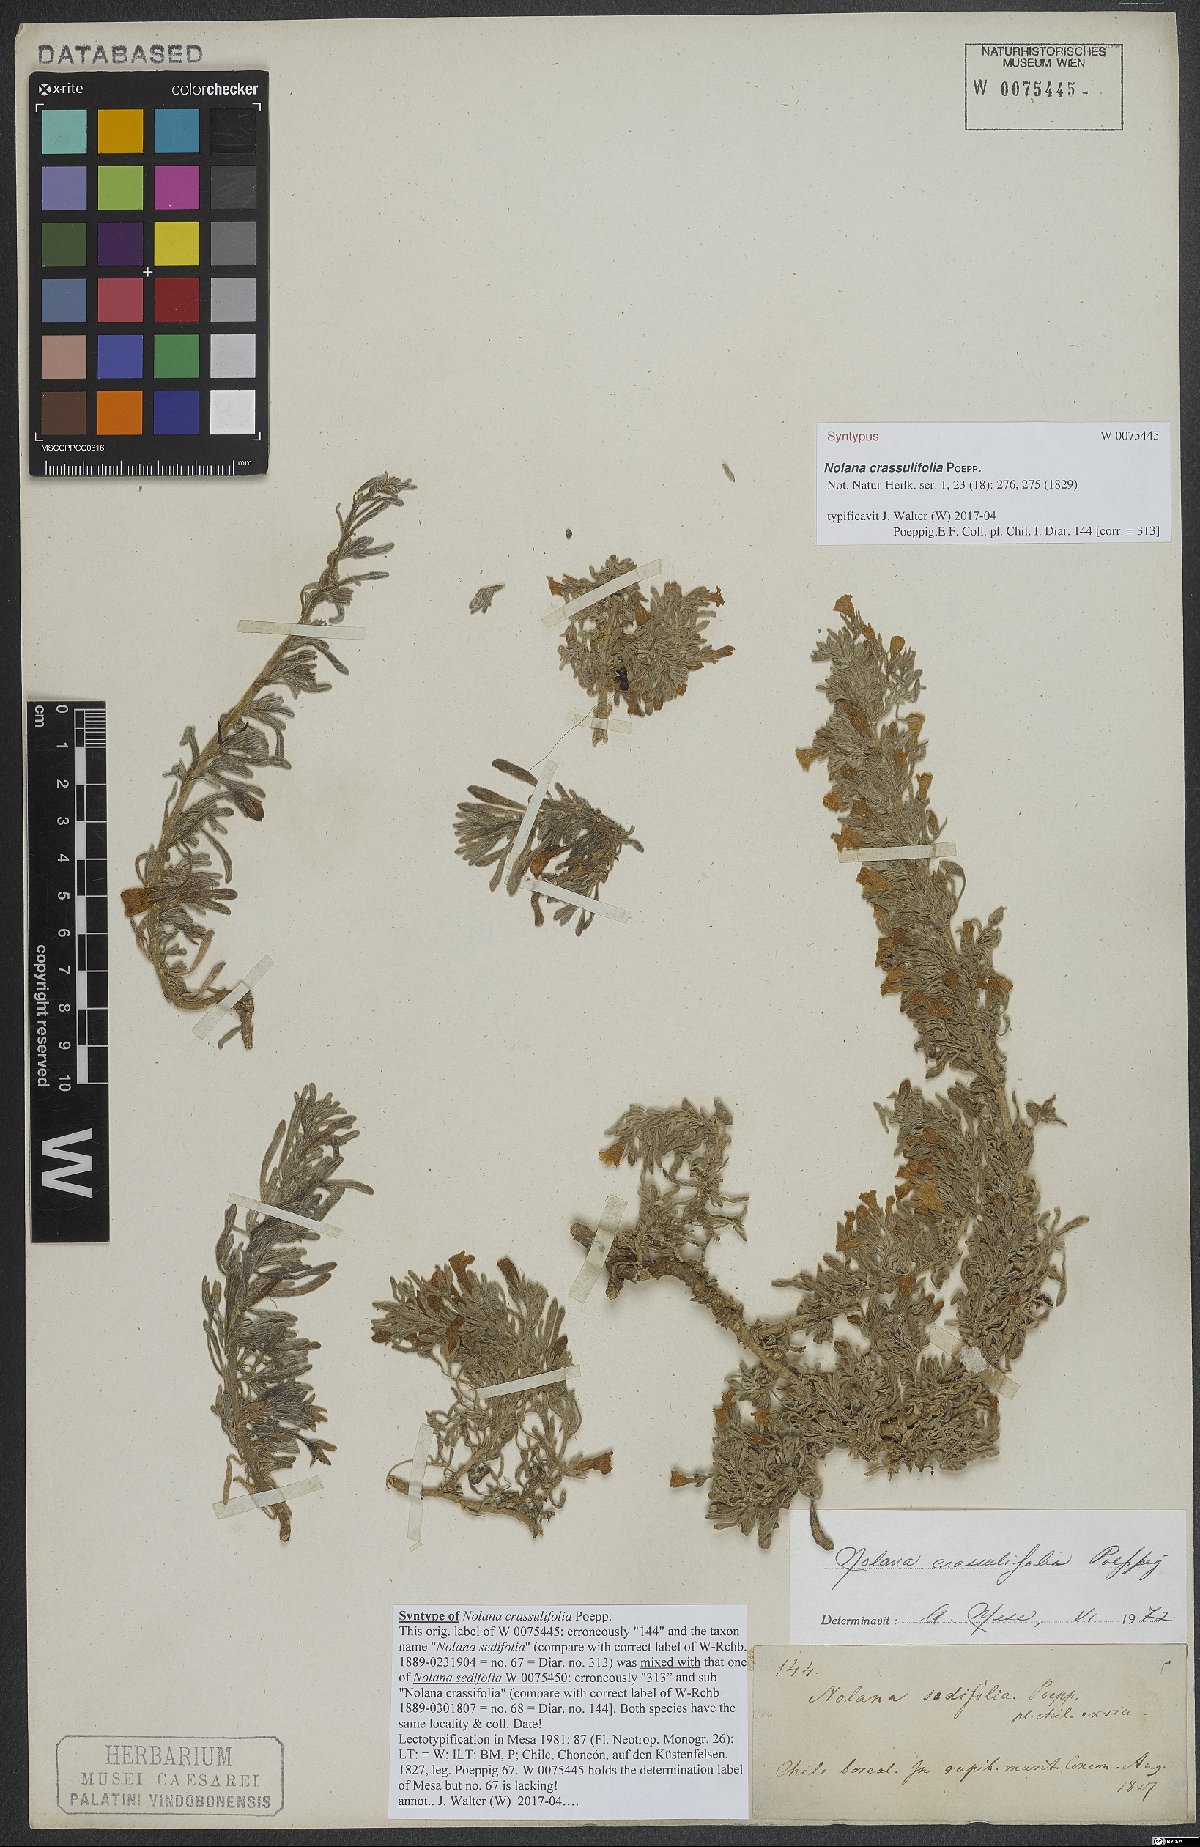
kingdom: Plantae
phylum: Tracheophyta
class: Magnoliopsida
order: Solanales
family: Solanaceae
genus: Nolana
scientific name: Nolana crassulifolia
